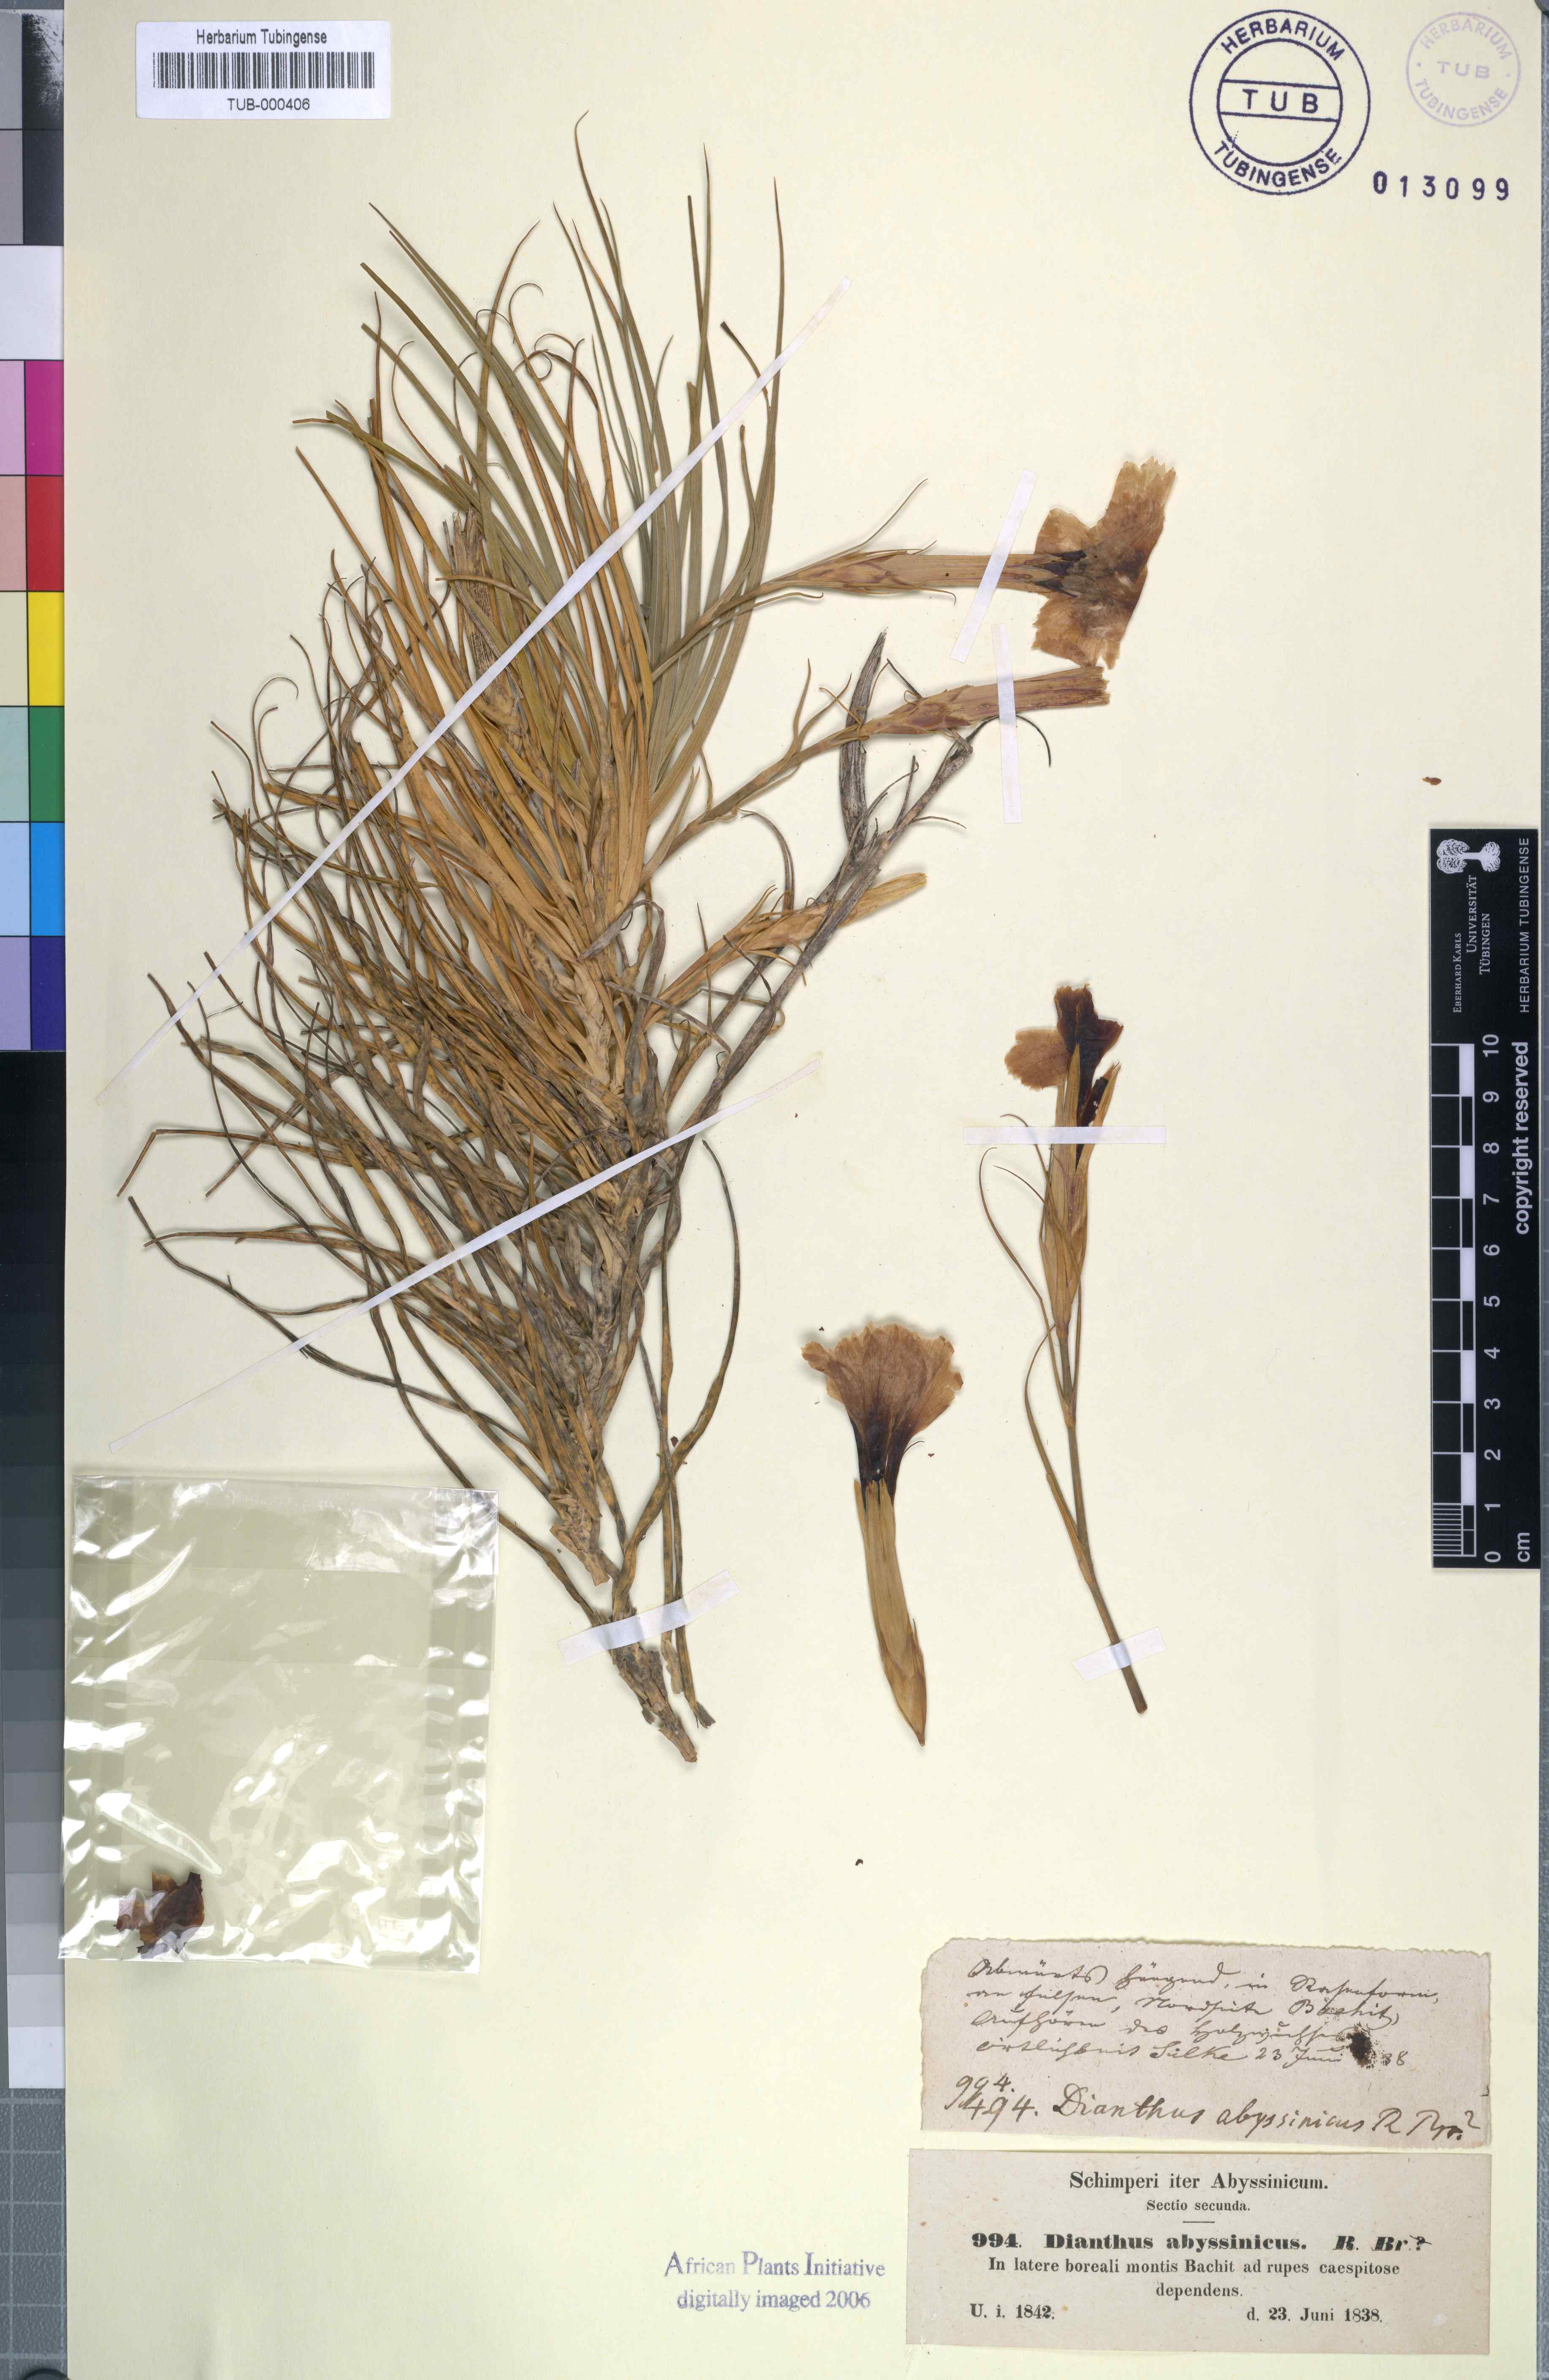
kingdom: Plantae
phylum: Tracheophyta
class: Magnoliopsida
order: Caryophyllales
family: Caryophyllaceae
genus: Dianthus
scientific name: Dianthus leptoloma
